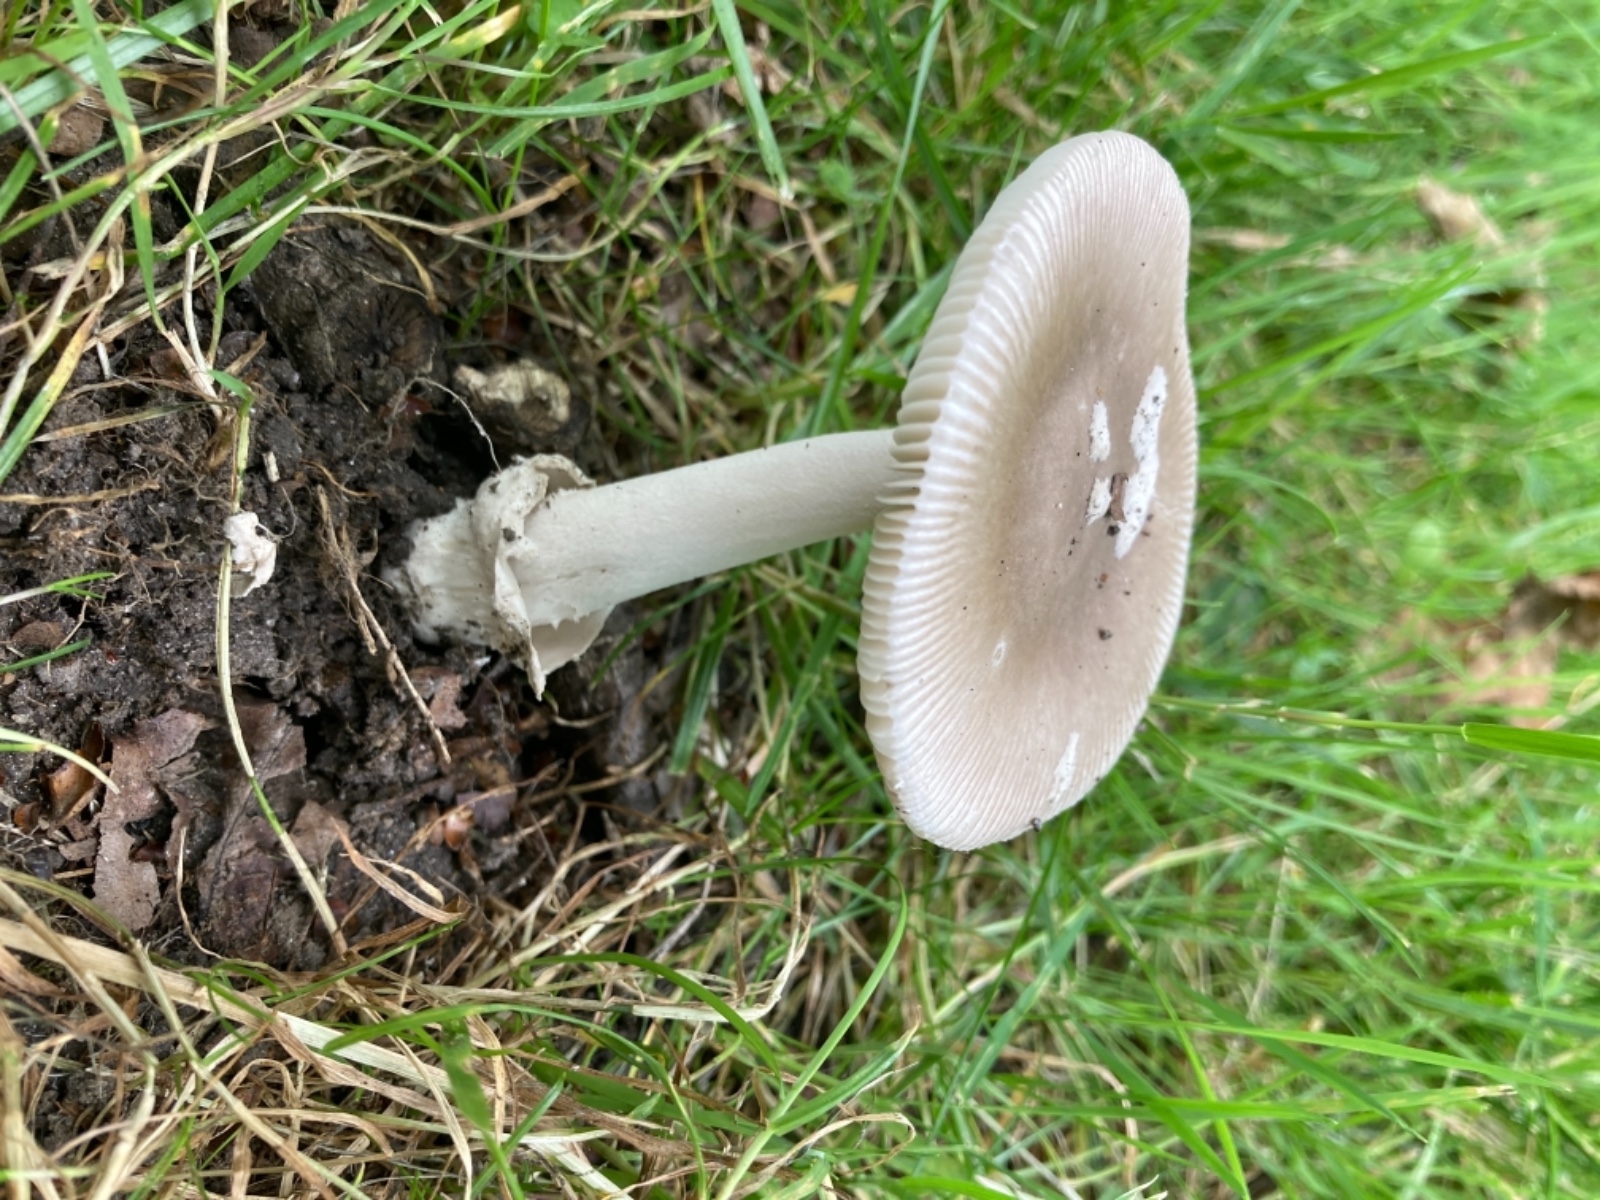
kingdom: Fungi
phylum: Basidiomycota
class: Agaricomycetes
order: Agaricales
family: Amanitaceae
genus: Amanita
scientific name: Amanita alseides
